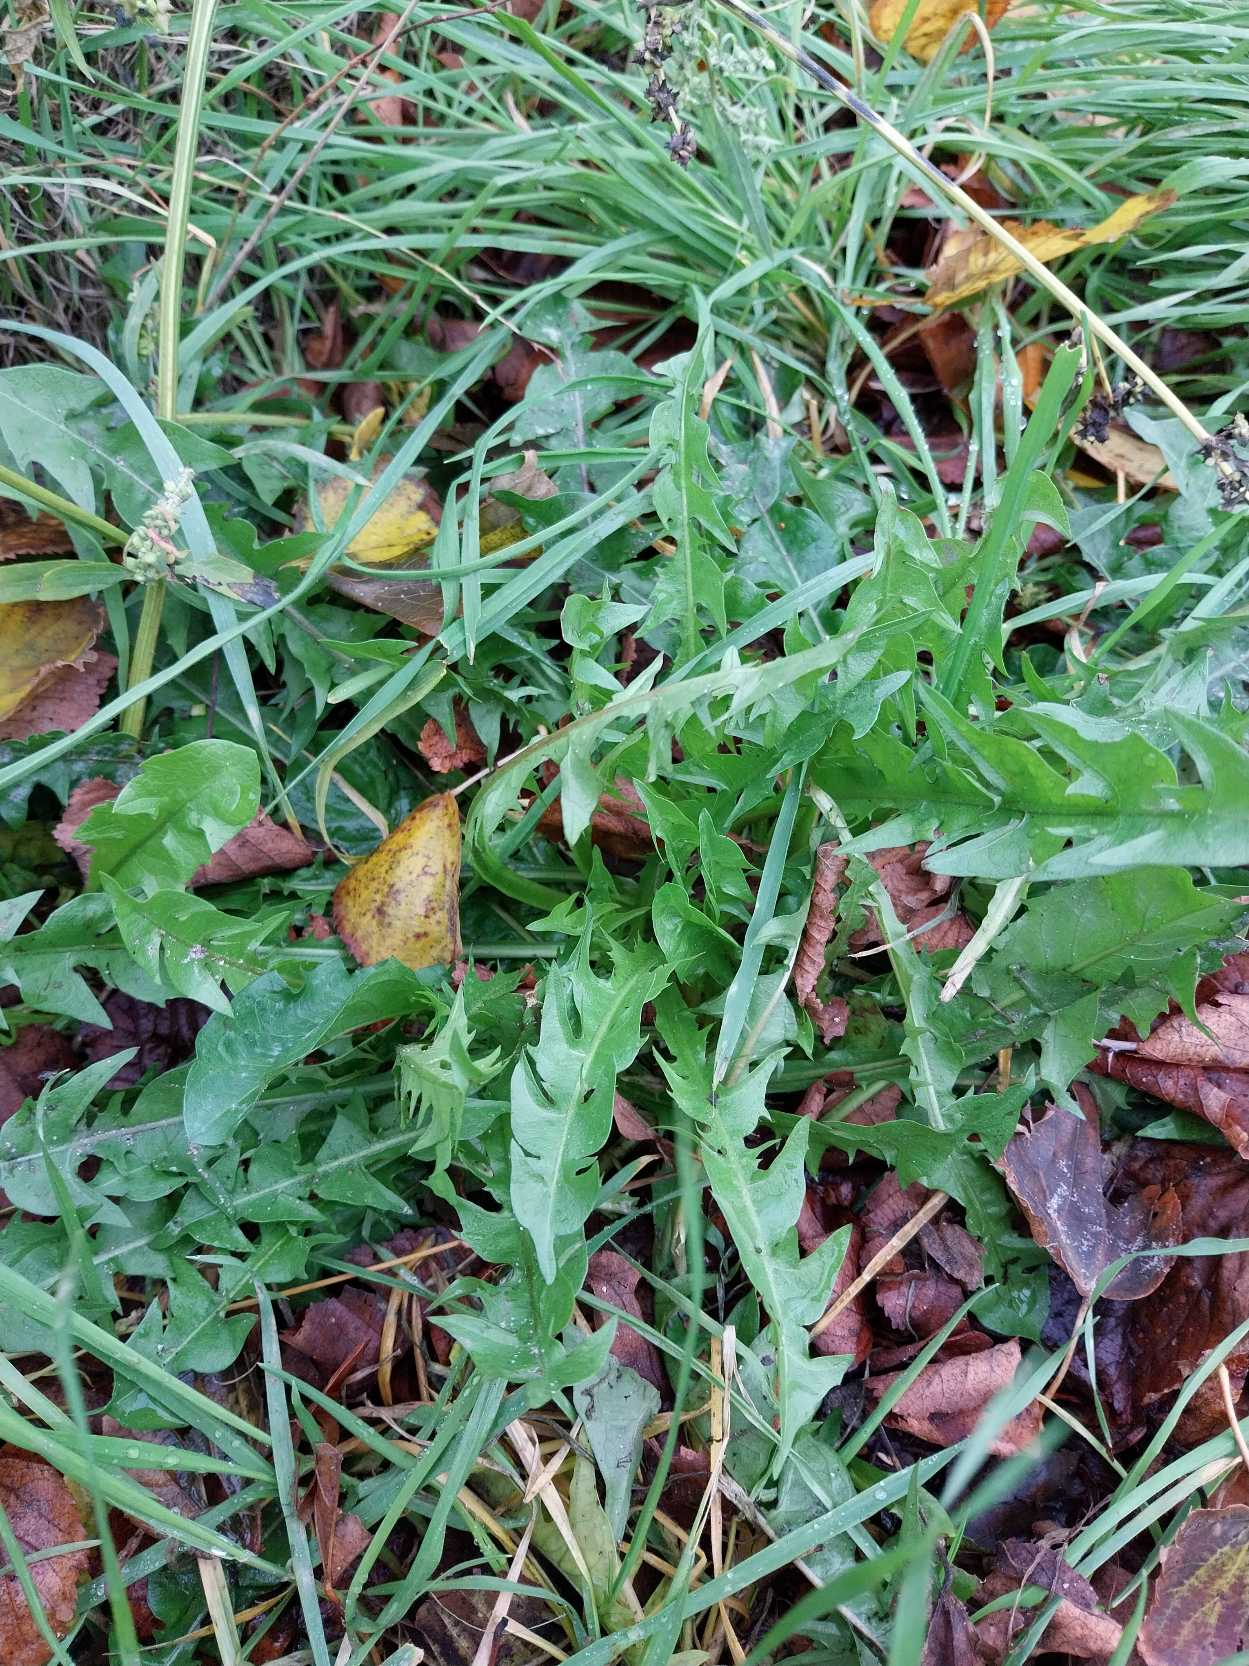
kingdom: Plantae
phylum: Tracheophyta
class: Magnoliopsida
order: Asterales
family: Asteraceae
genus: Taraxacum
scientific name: Taraxacum
